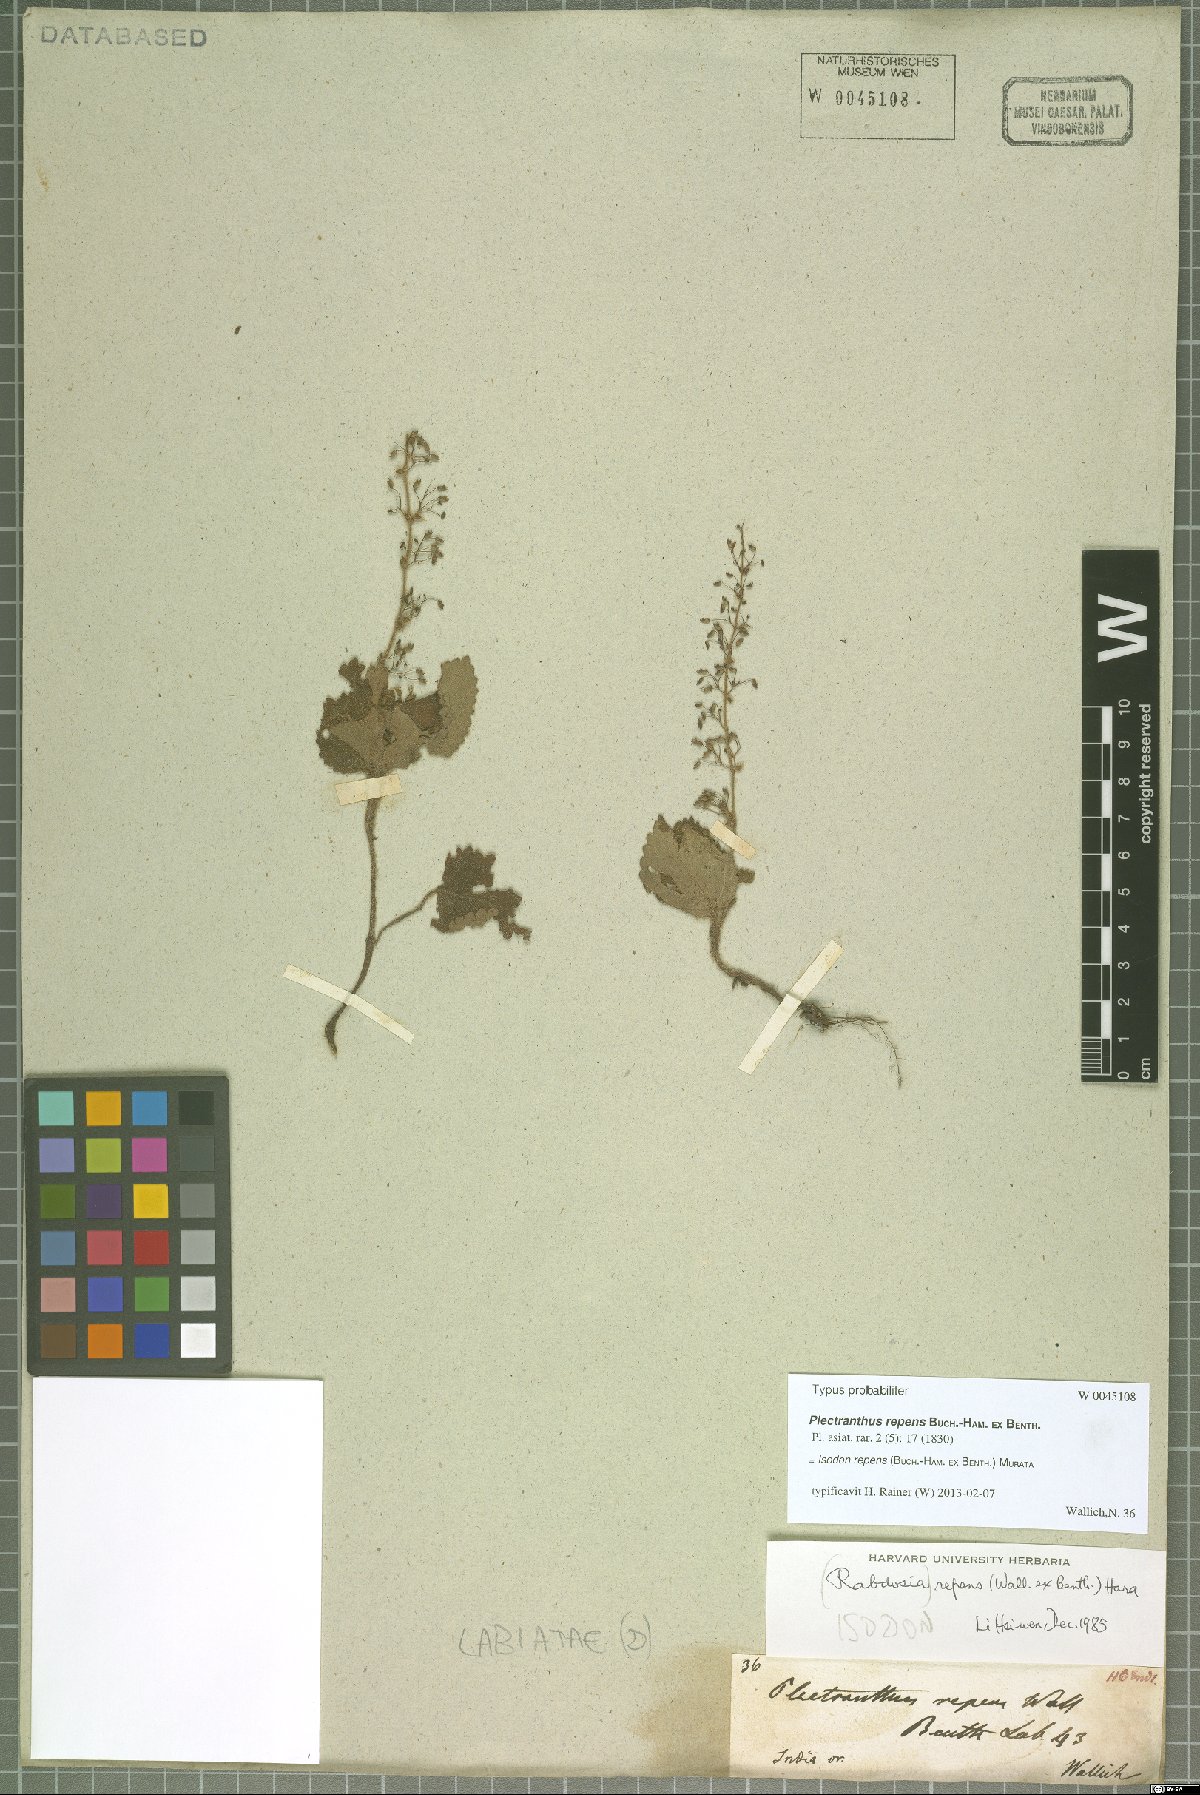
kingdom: Plantae
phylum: Tracheophyta
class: Magnoliopsida
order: Lamiales
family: Lamiaceae
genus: Isodon
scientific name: Isodon repens
